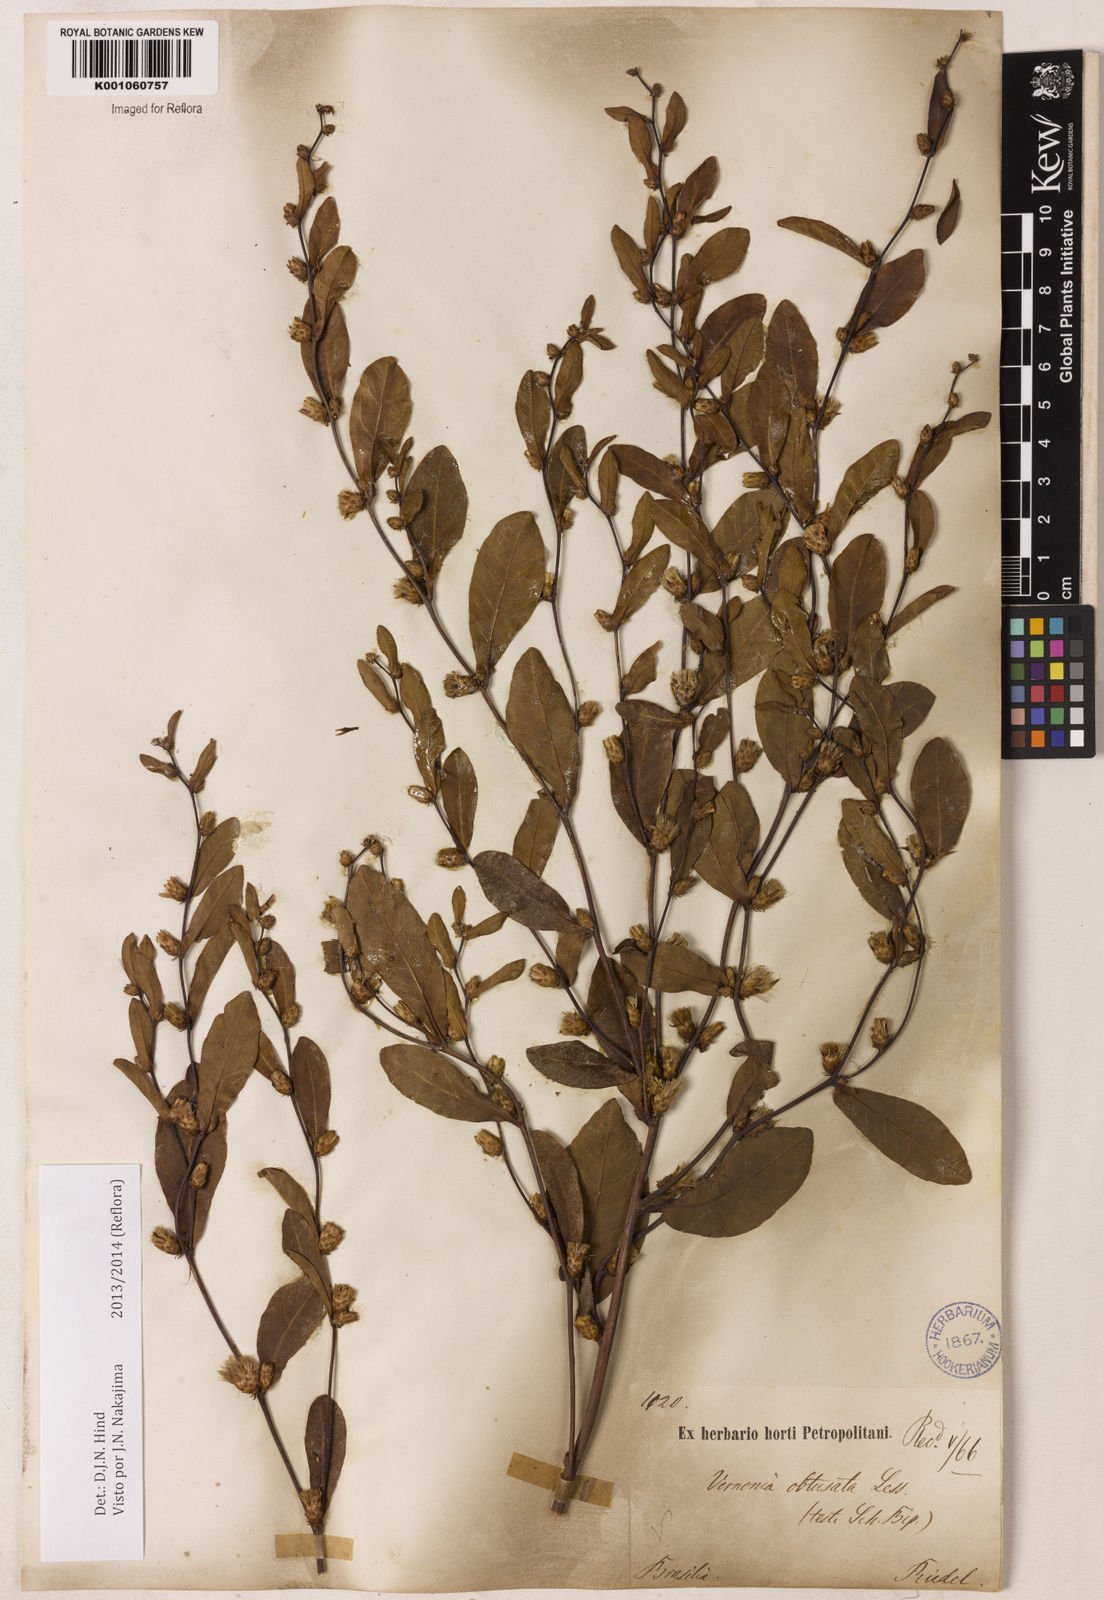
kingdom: Plantae
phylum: Tracheophyta
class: Magnoliopsida
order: Asterales
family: Asteraceae
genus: Lessingianthus
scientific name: Lessingianthus obtusatus
